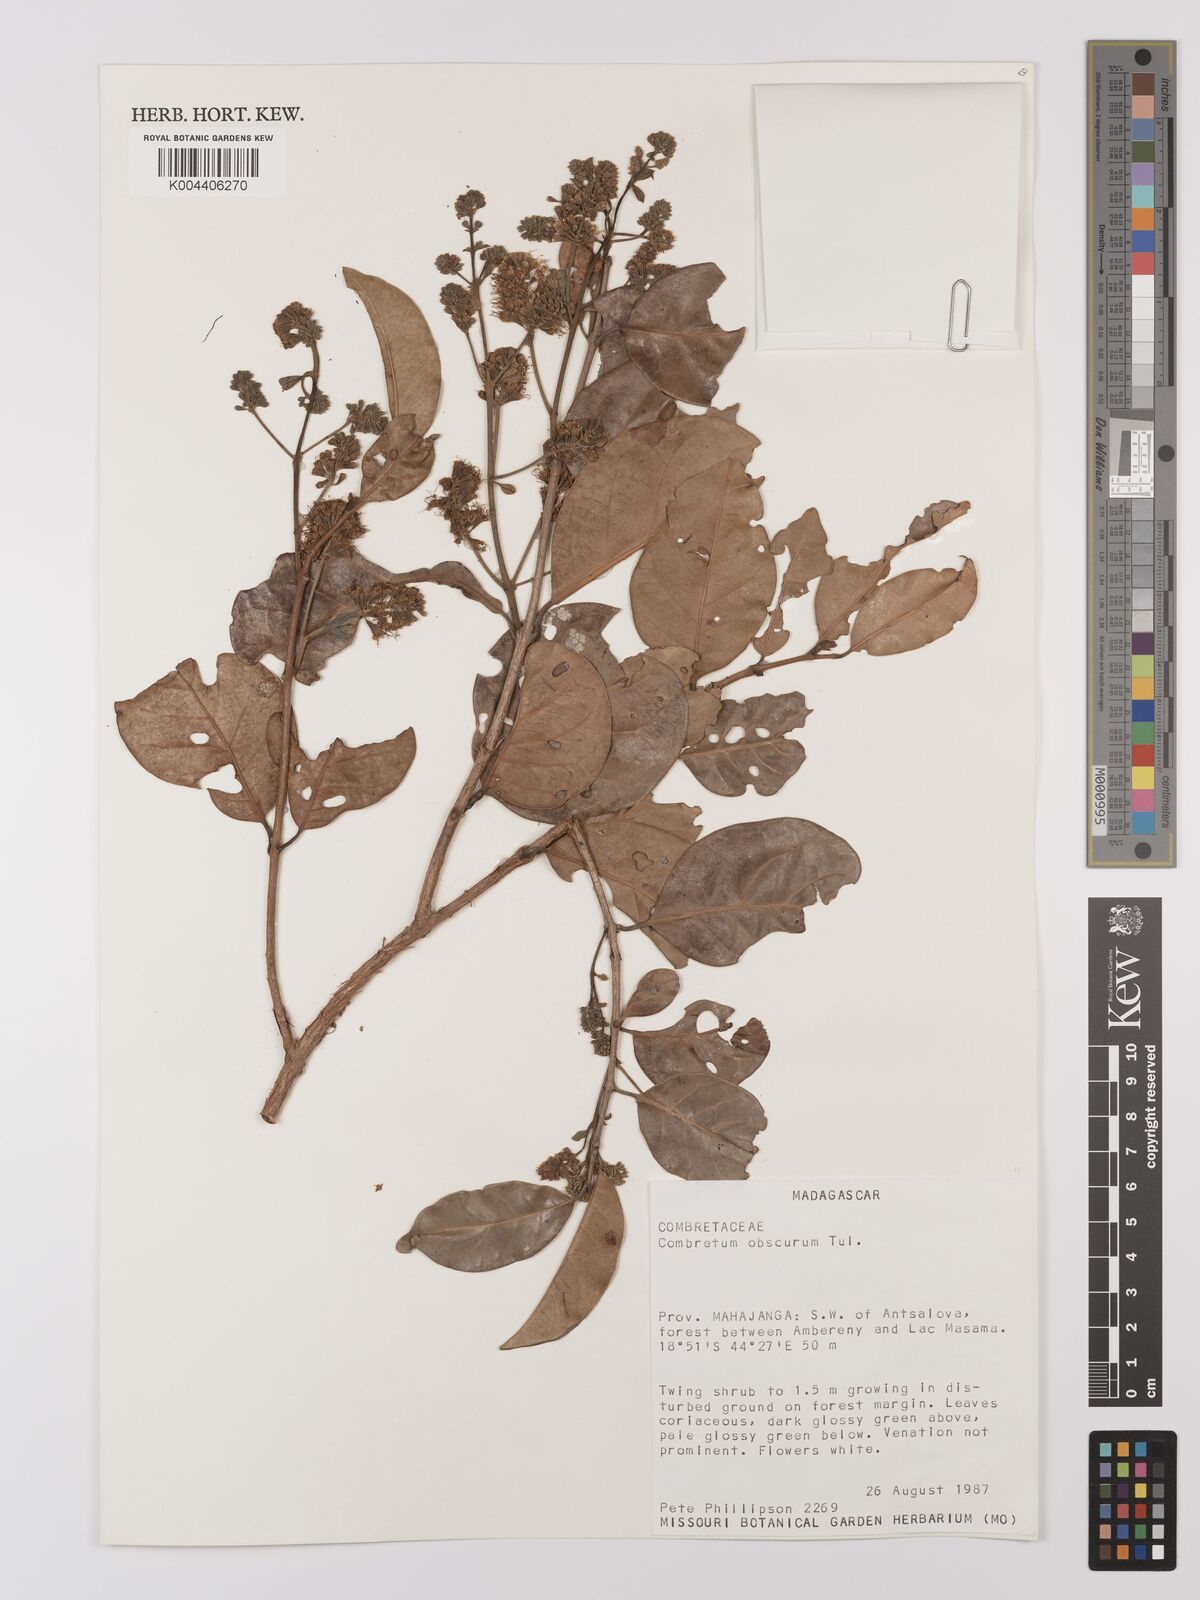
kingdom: Plantae
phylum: Tracheophyta
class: Magnoliopsida
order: Myrtales
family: Combretaceae
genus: Combretum
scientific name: Combretum obscurum
